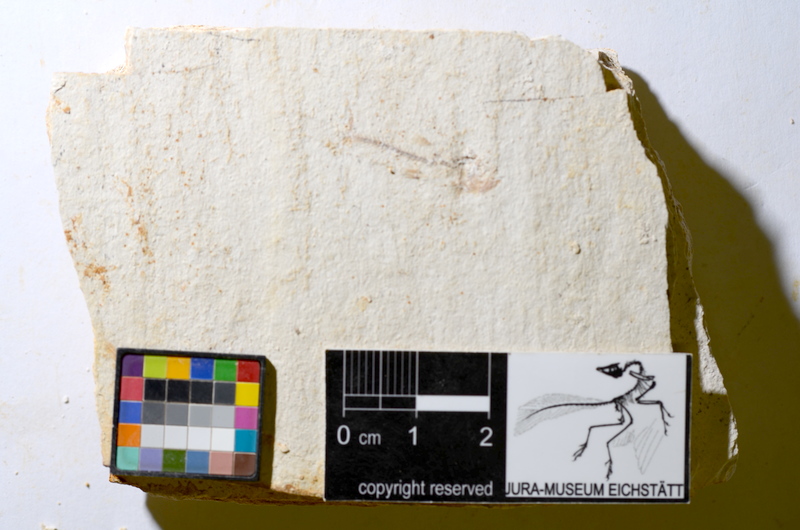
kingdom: Animalia
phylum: Chordata
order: Salmoniformes
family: Orthogonikleithridae
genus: Orthogonikleithrus
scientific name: Orthogonikleithrus hoelli
